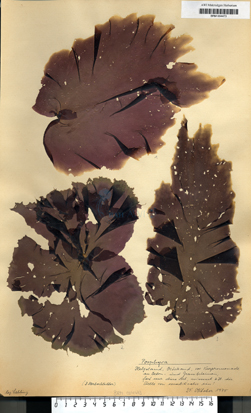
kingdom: Plantae
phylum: Rhodophyta
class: Bangiophyceae
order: Bangiales
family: Bangiaceae
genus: Porphyra
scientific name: Porphyra
